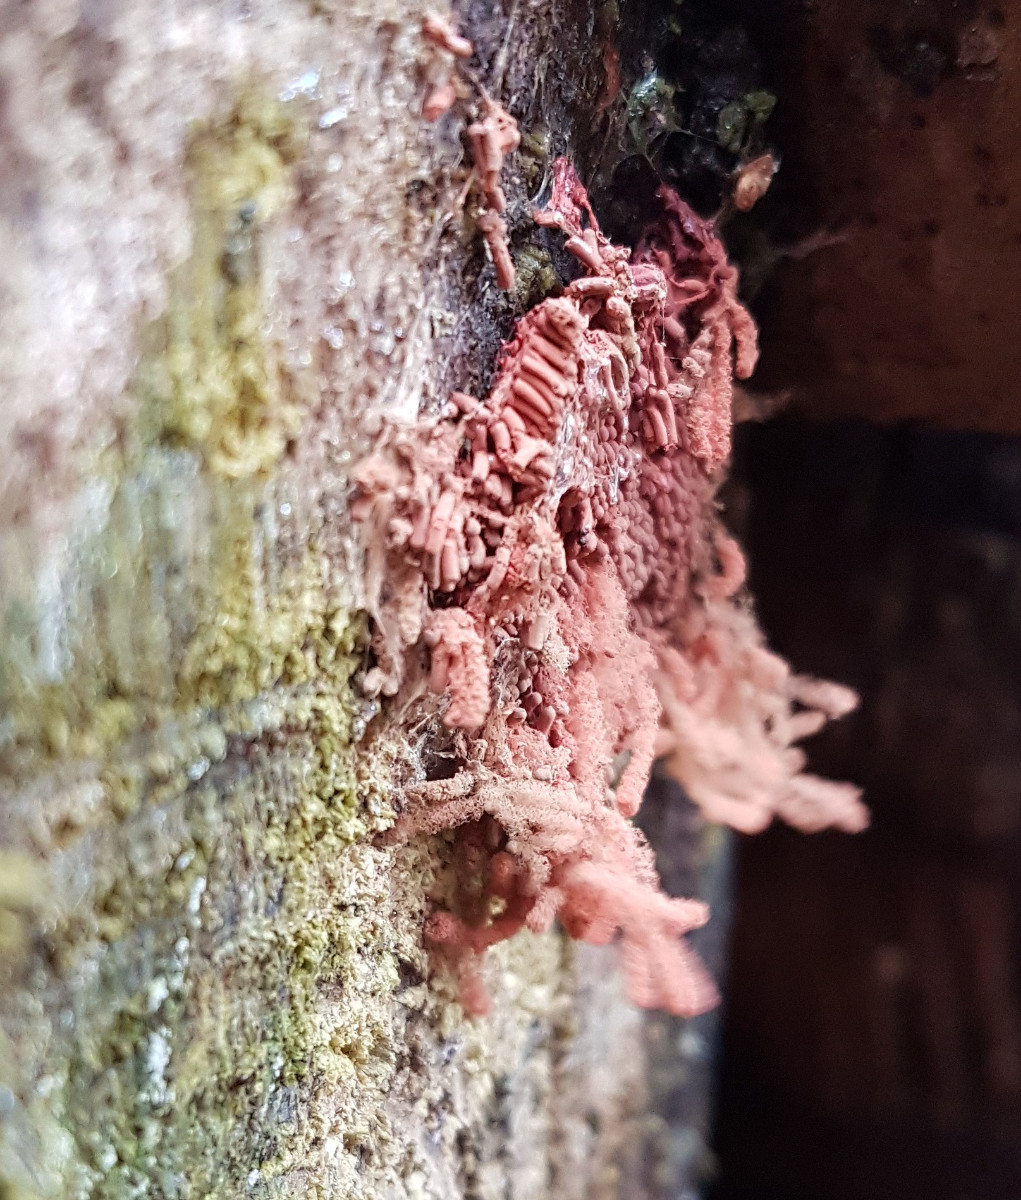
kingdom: Protozoa
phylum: Amoebozoa
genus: Arcyria
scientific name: Arcyria
